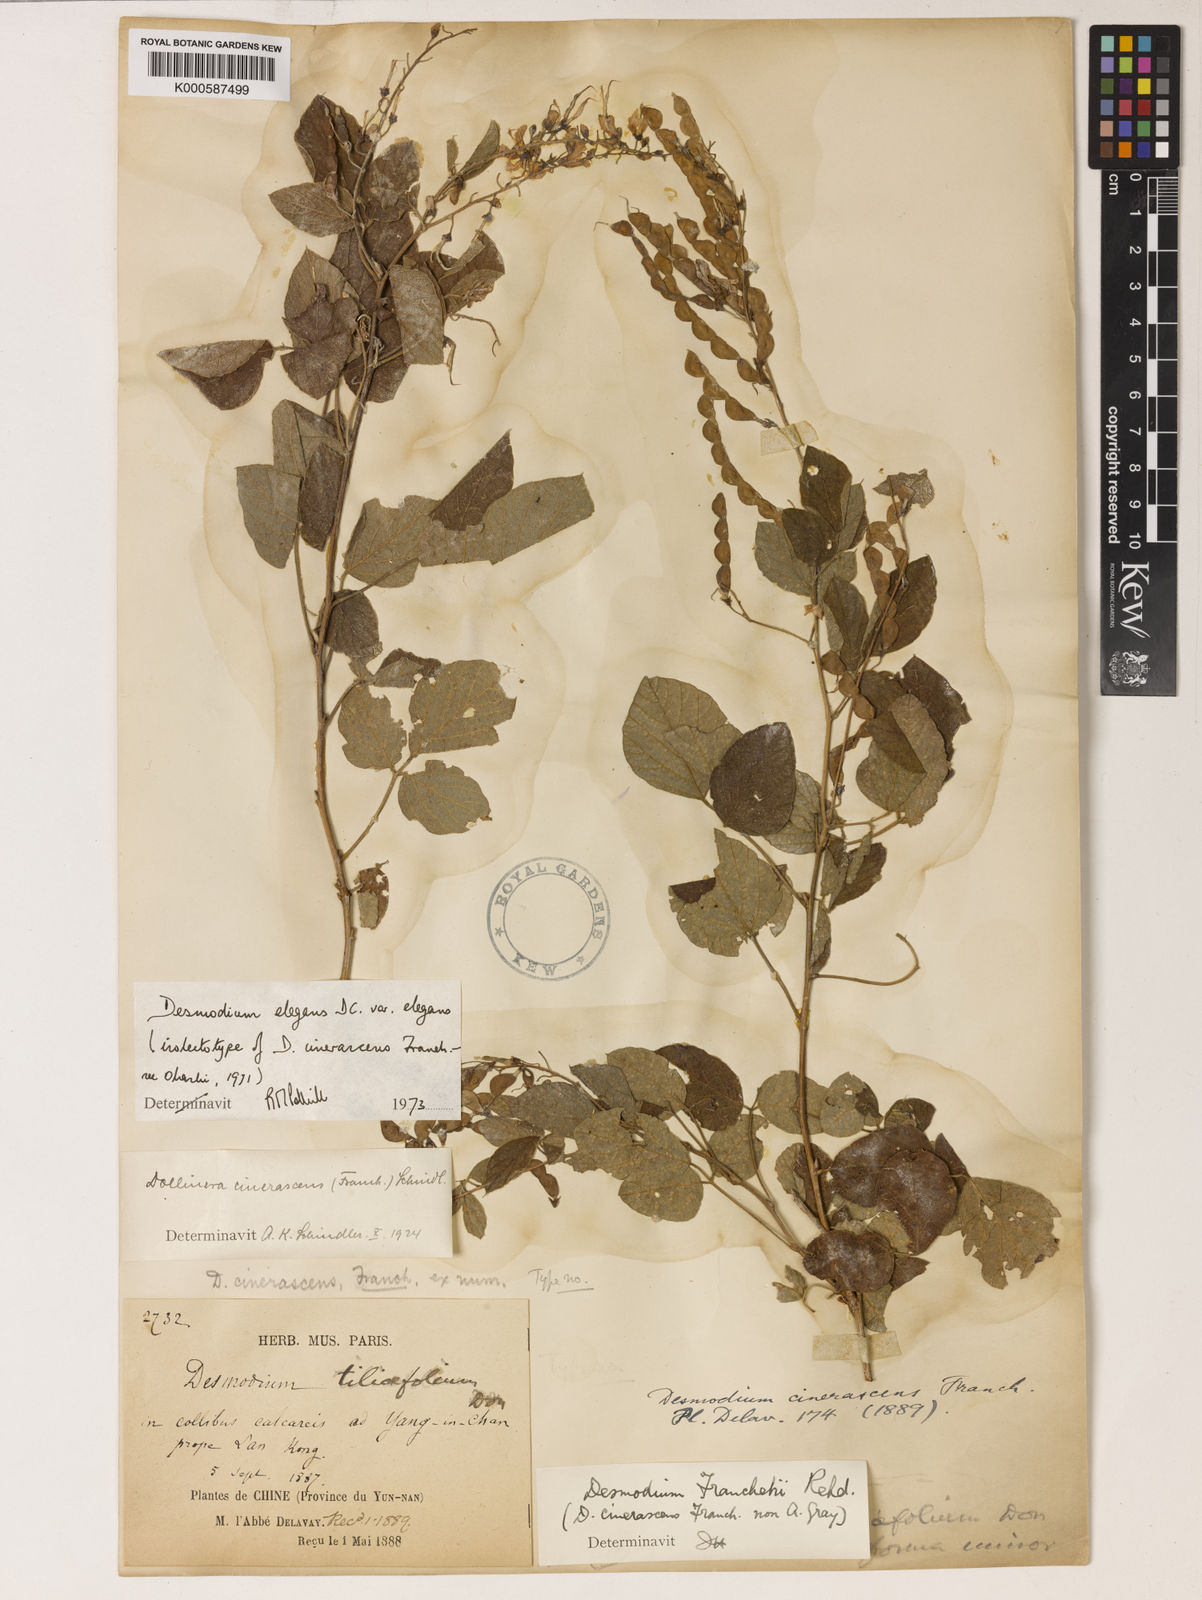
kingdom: Plantae
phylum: Tracheophyta
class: Magnoliopsida
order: Fabales
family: Fabaceae
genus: Sunhangia
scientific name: Sunhangia elegans
